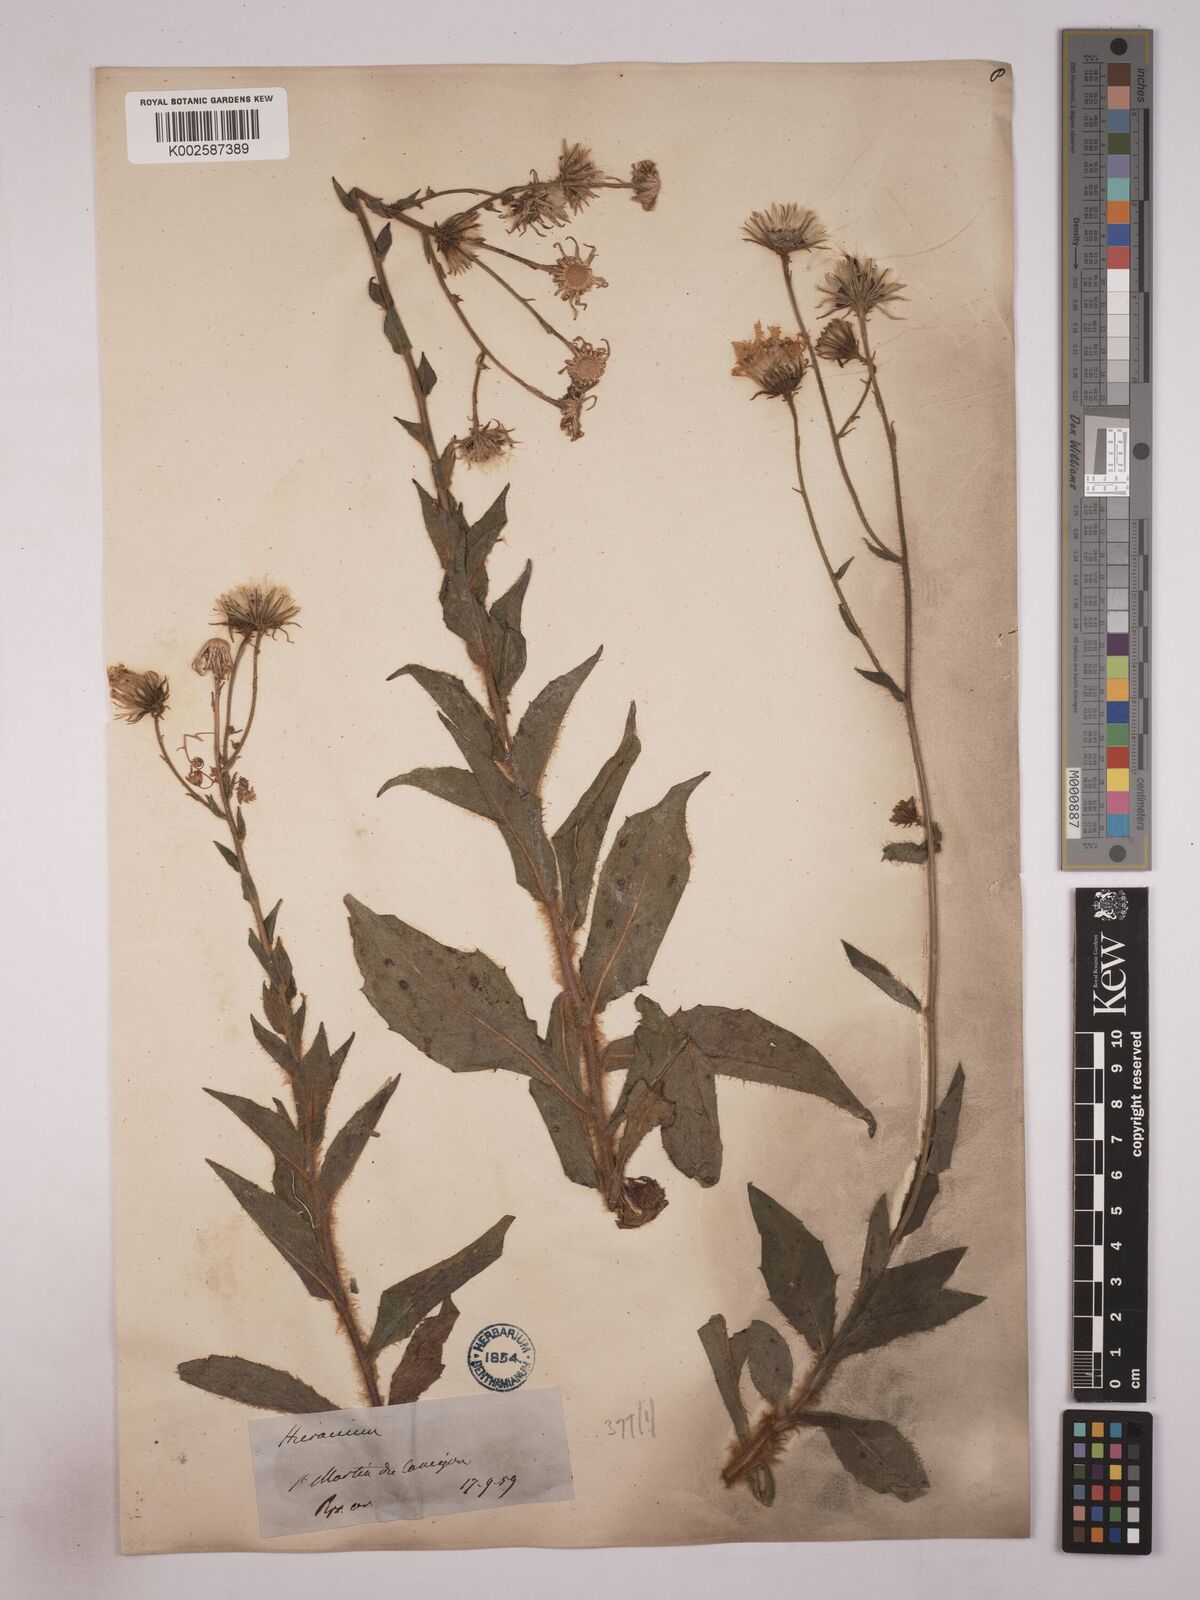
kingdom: Plantae
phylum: Tracheophyta
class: Magnoliopsida
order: Asterales
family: Asteraceae
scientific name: Asteraceae
